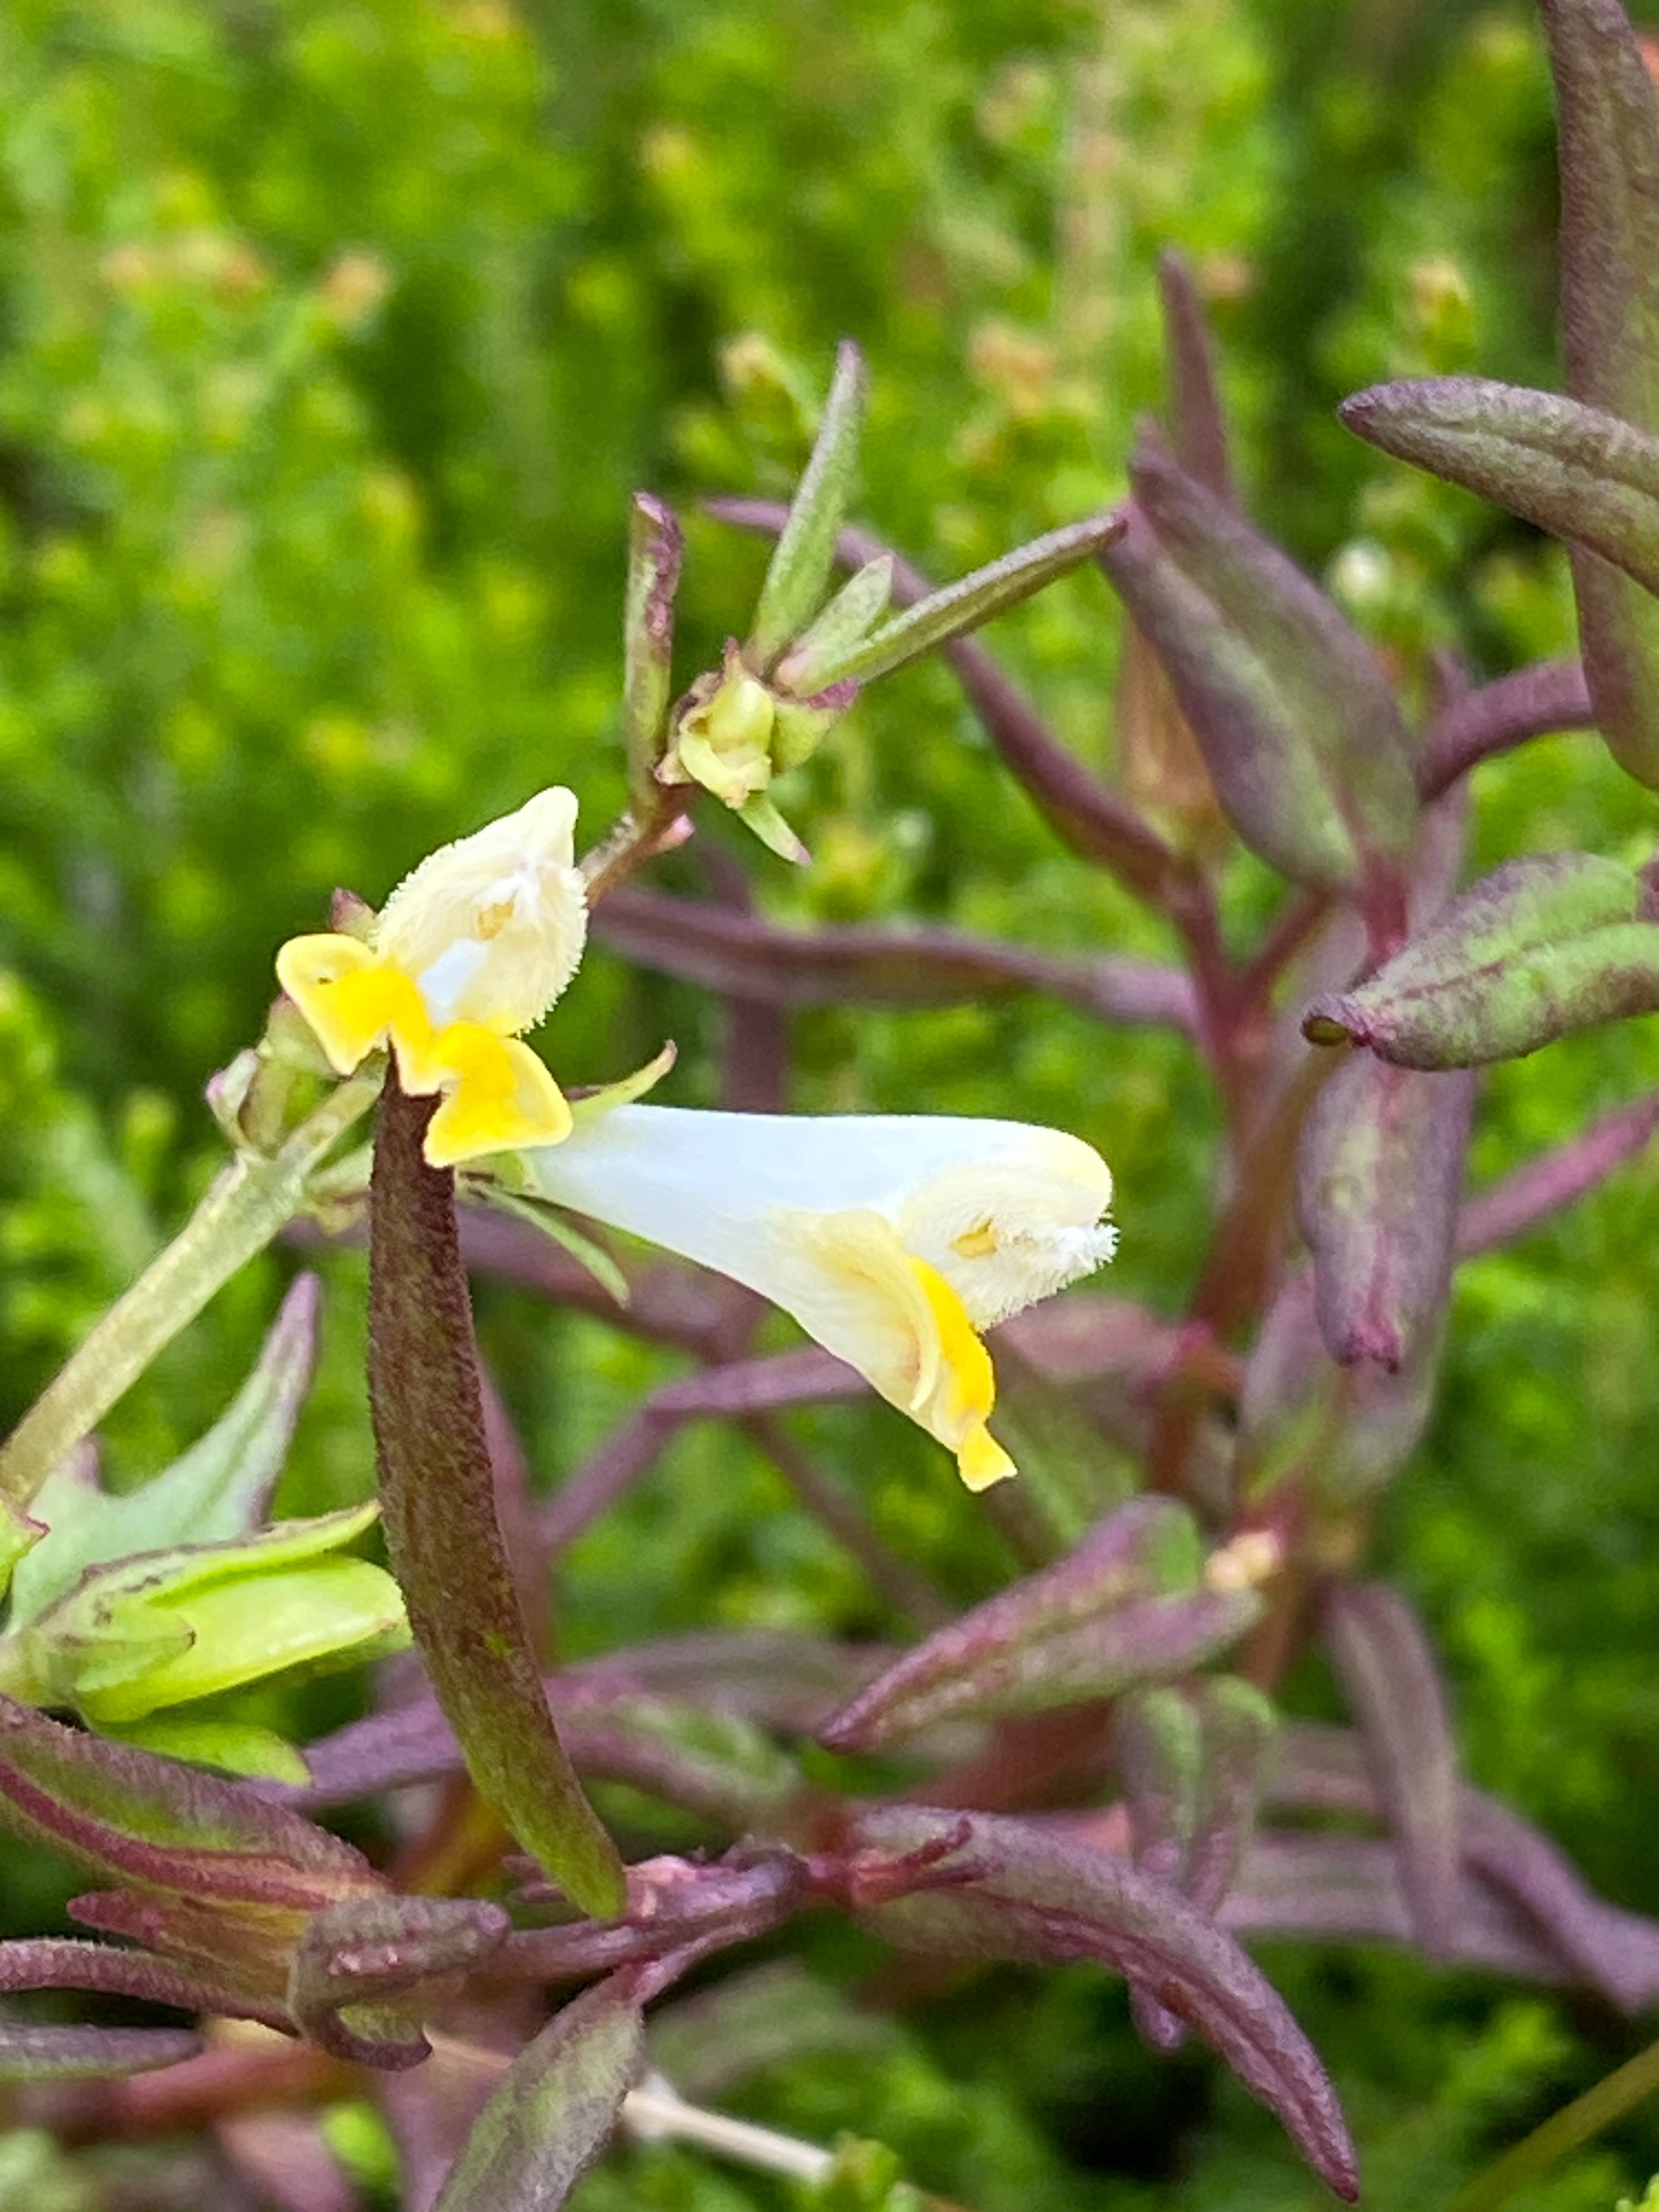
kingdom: Plantae
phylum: Tracheophyta
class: Magnoliopsida
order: Lamiales
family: Orobanchaceae
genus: Melampyrum
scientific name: Melampyrum pratense
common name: Almindelig kohvede
